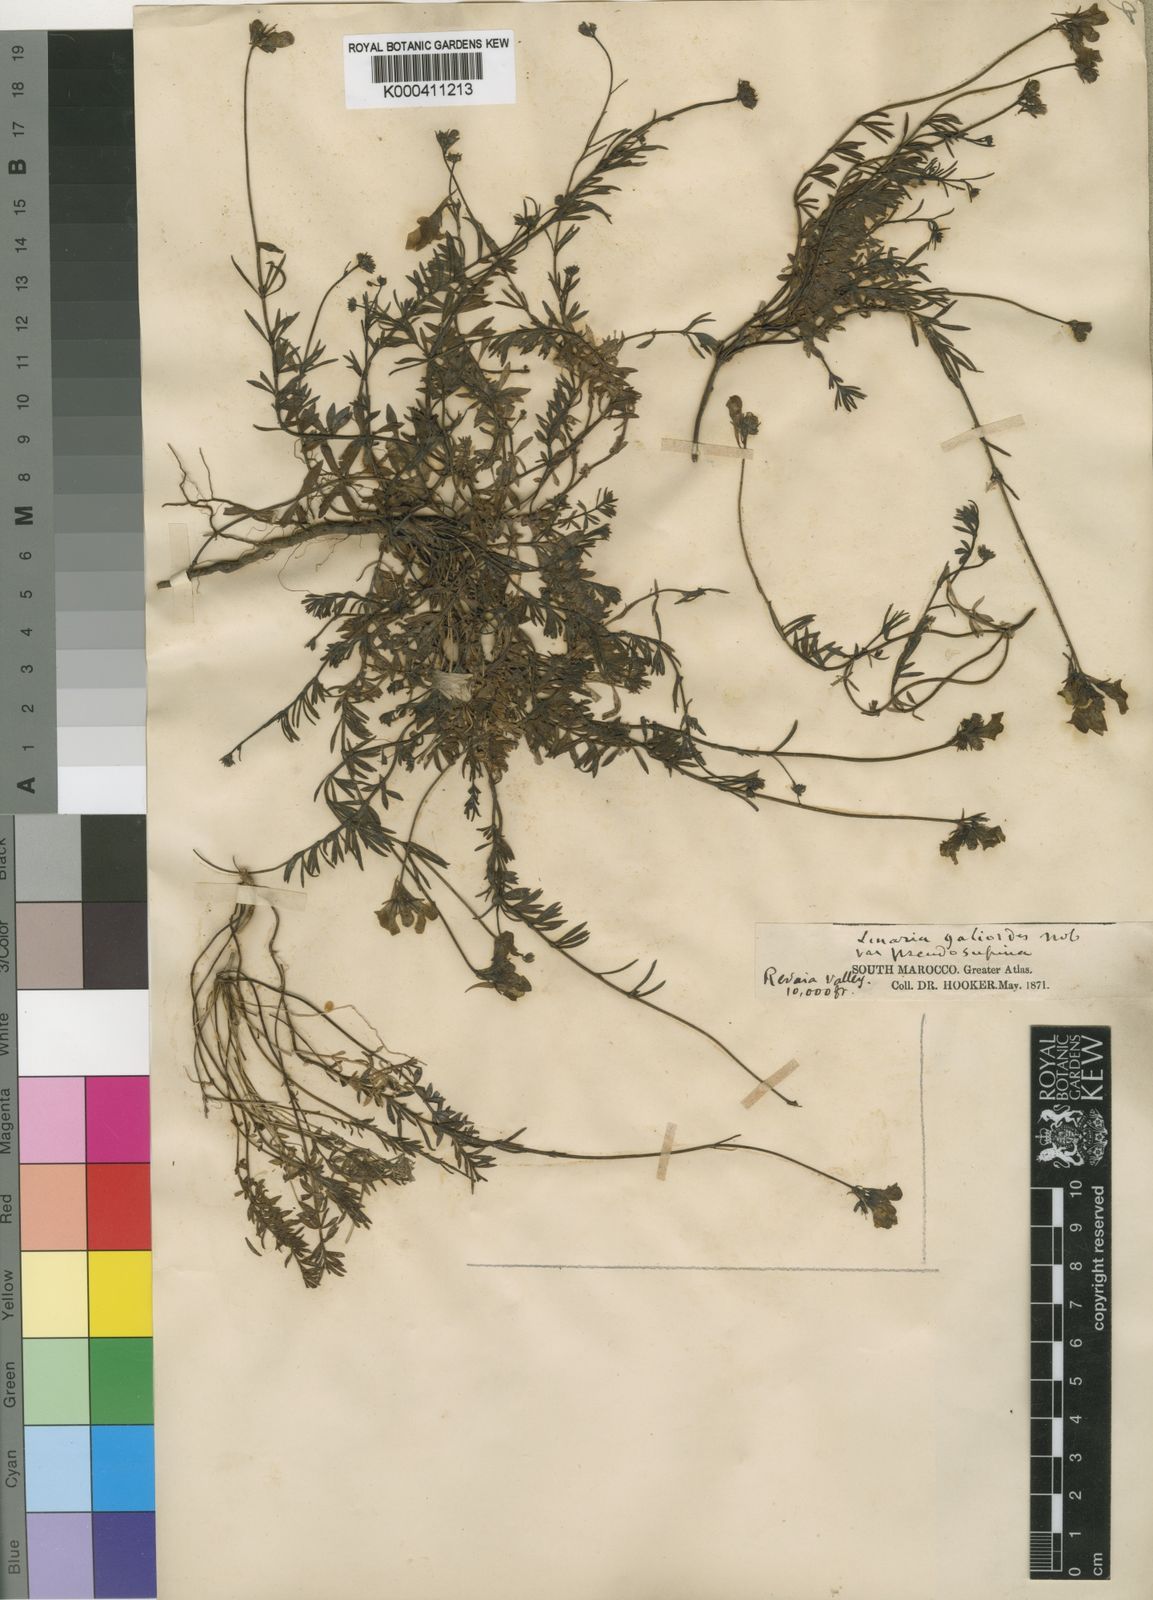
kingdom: Plantae
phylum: Tracheophyta
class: Magnoliopsida
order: Lamiales
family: Plantaginaceae
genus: Linaria
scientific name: Linaria repens
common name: Pale toadflax
